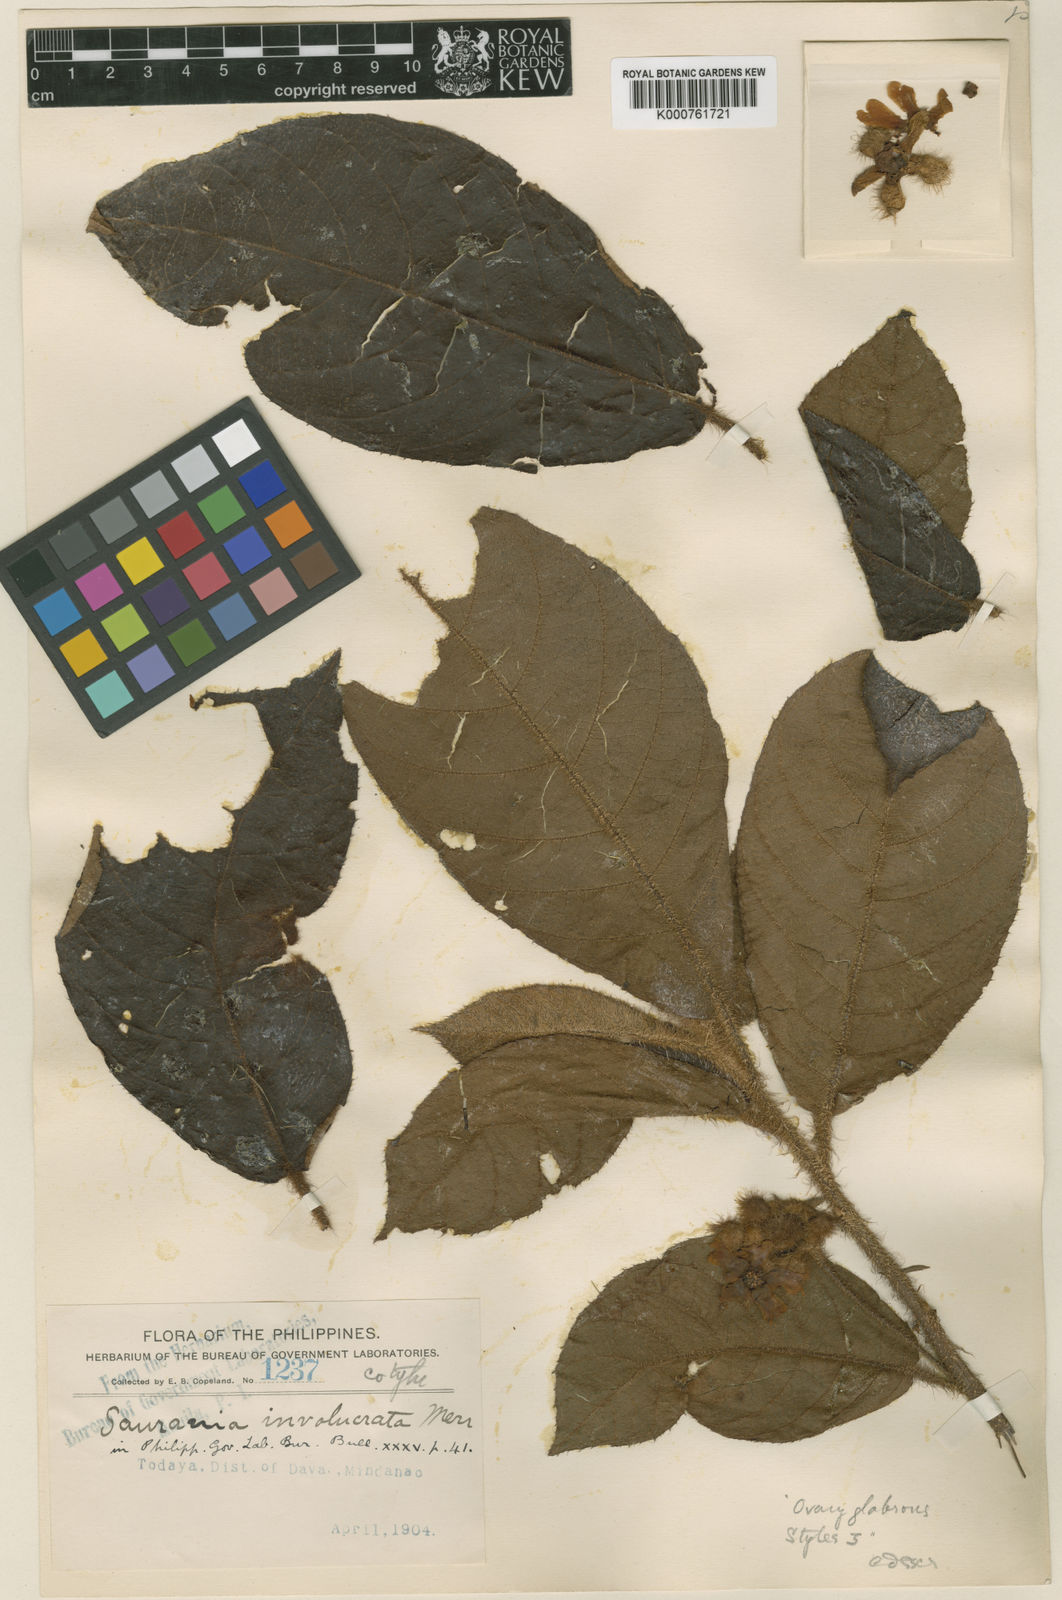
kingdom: Plantae
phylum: Tracheophyta
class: Magnoliopsida
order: Ericales
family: Actinidiaceae
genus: Saurauia
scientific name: Saurauia involucrata
